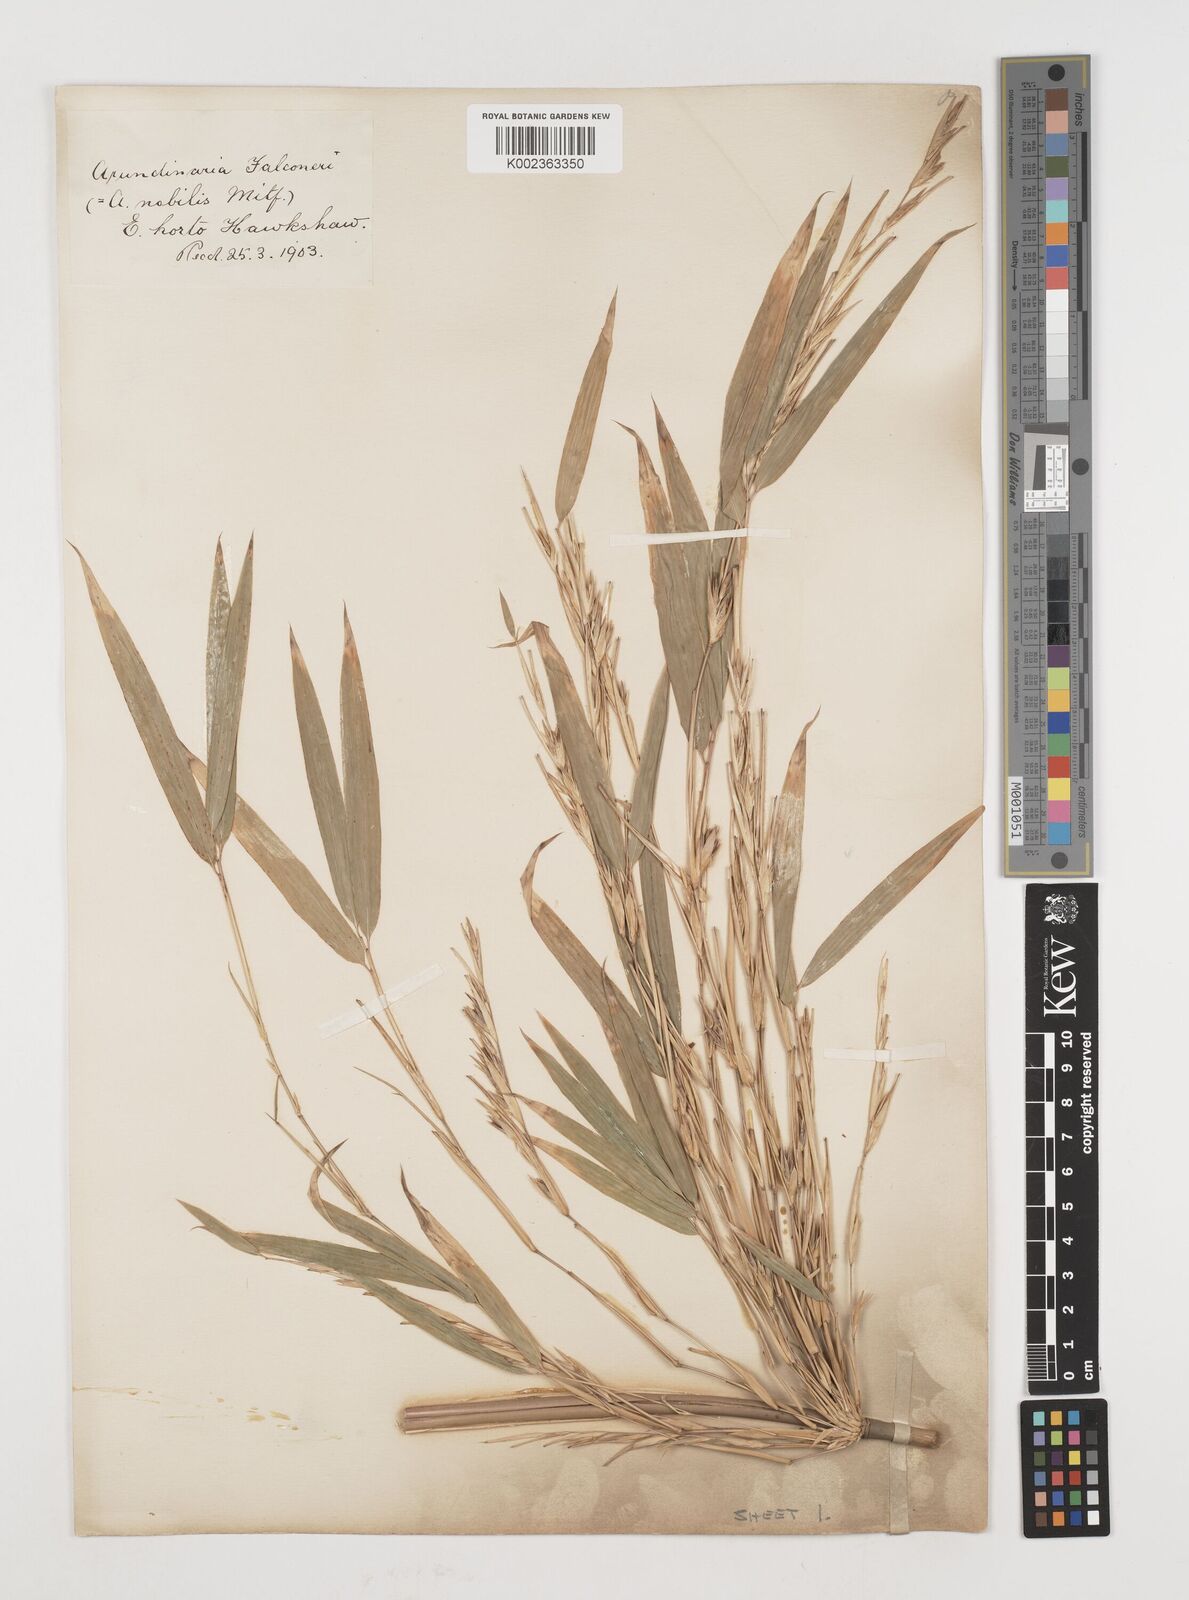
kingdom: Plantae
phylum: Tracheophyta
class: Liliopsida
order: Poales
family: Poaceae
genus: Himalayacalamus
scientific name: Himalayacalamus falconeri
